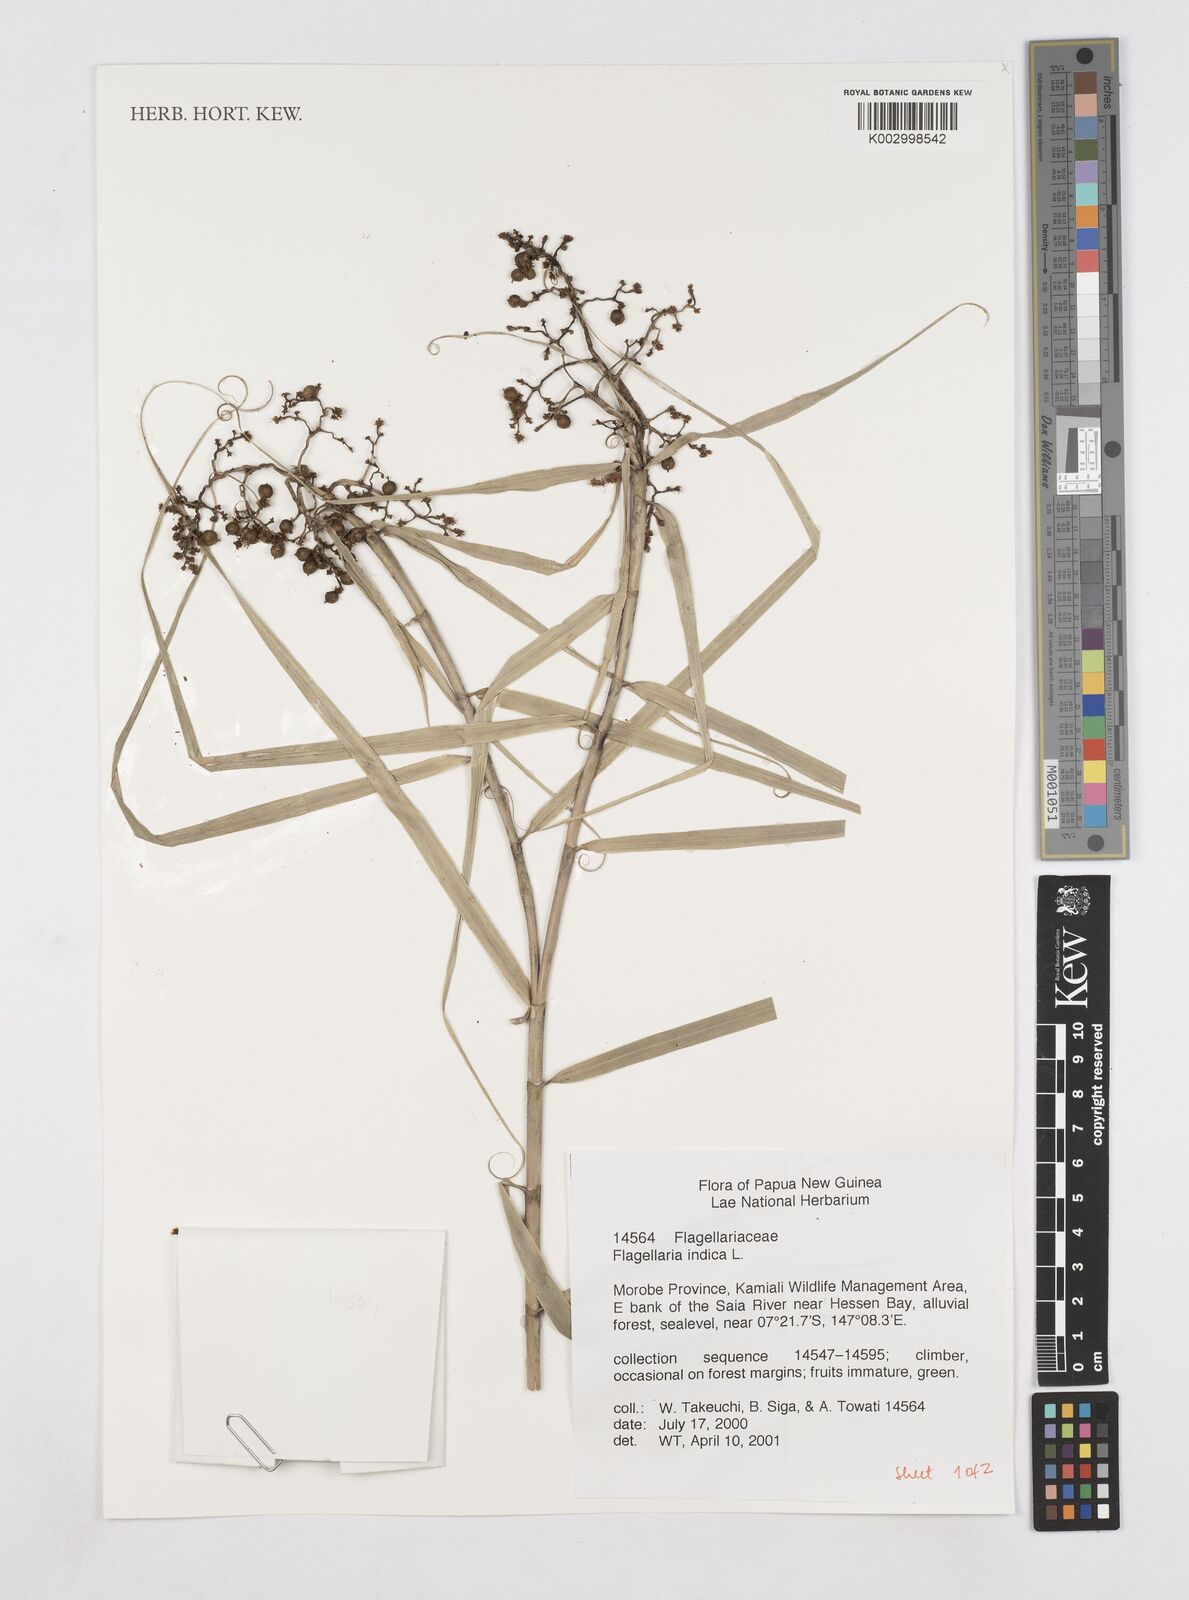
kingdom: Plantae
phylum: Tracheophyta
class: Liliopsida
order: Poales
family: Flagellariaceae
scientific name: Flagellariaceae
